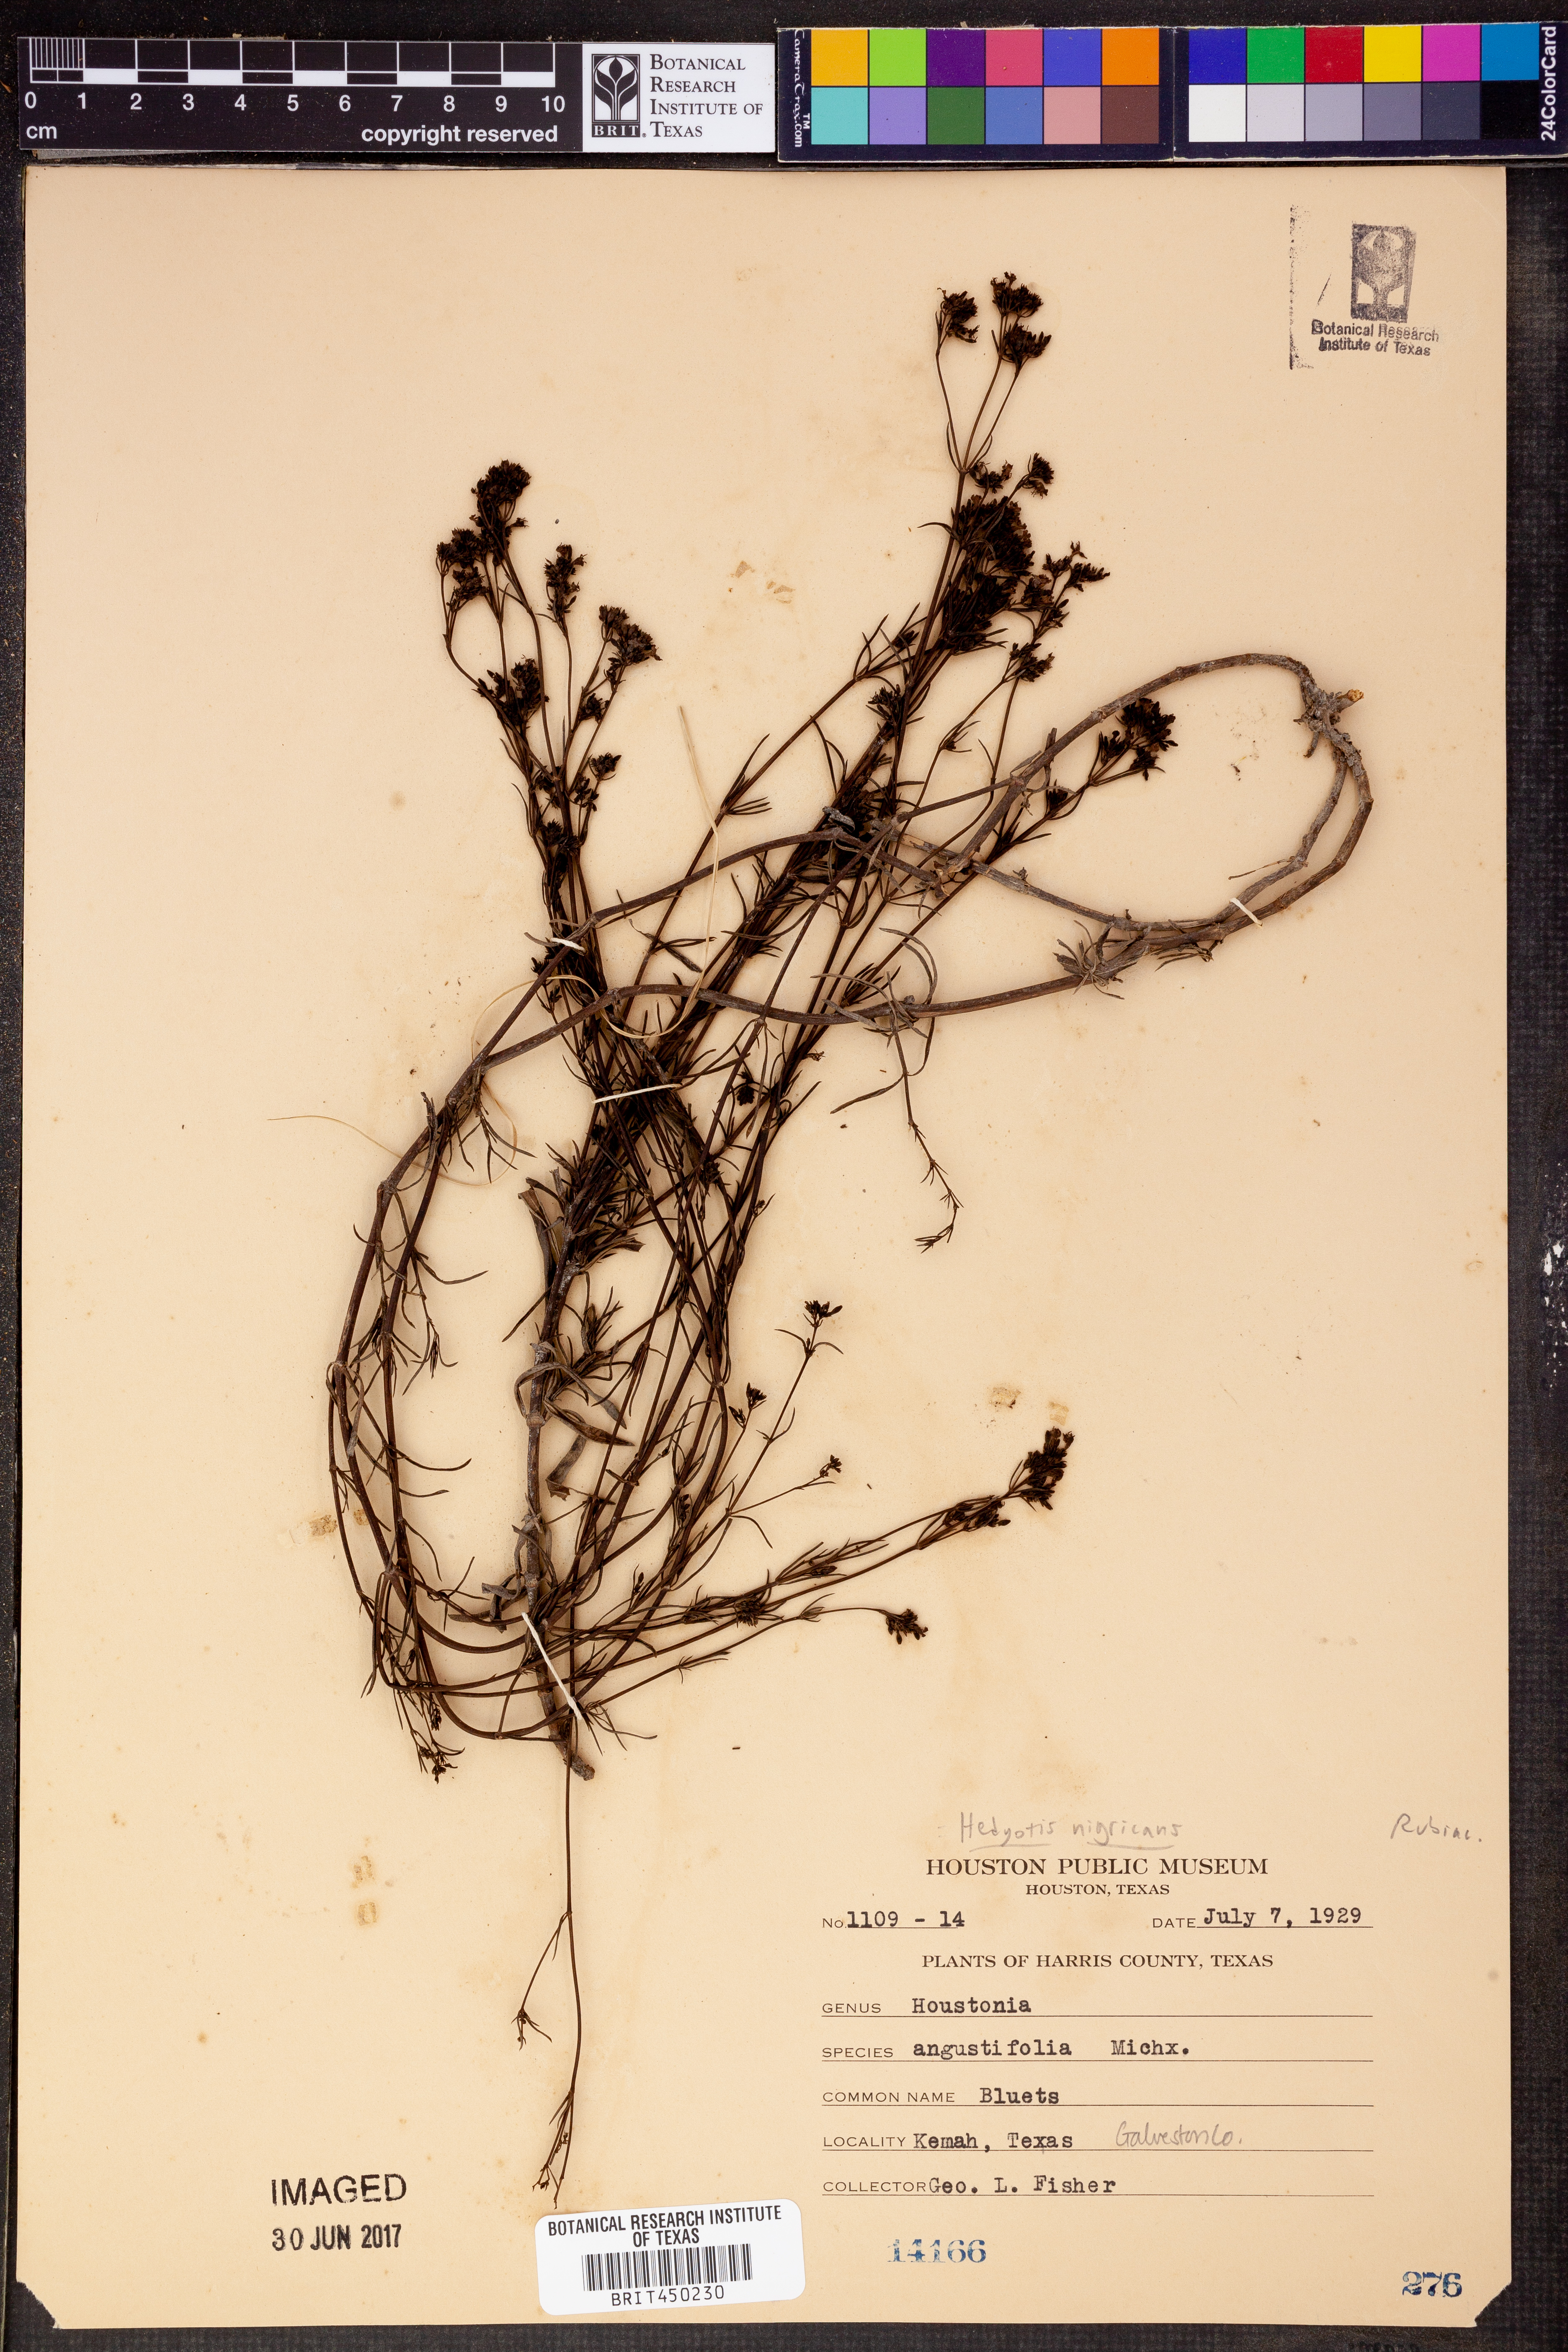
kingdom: Plantae
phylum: Tracheophyta
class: Magnoliopsida
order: Gentianales
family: Rubiaceae
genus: Stenaria
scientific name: Stenaria nigricans
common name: Diamondflowers
